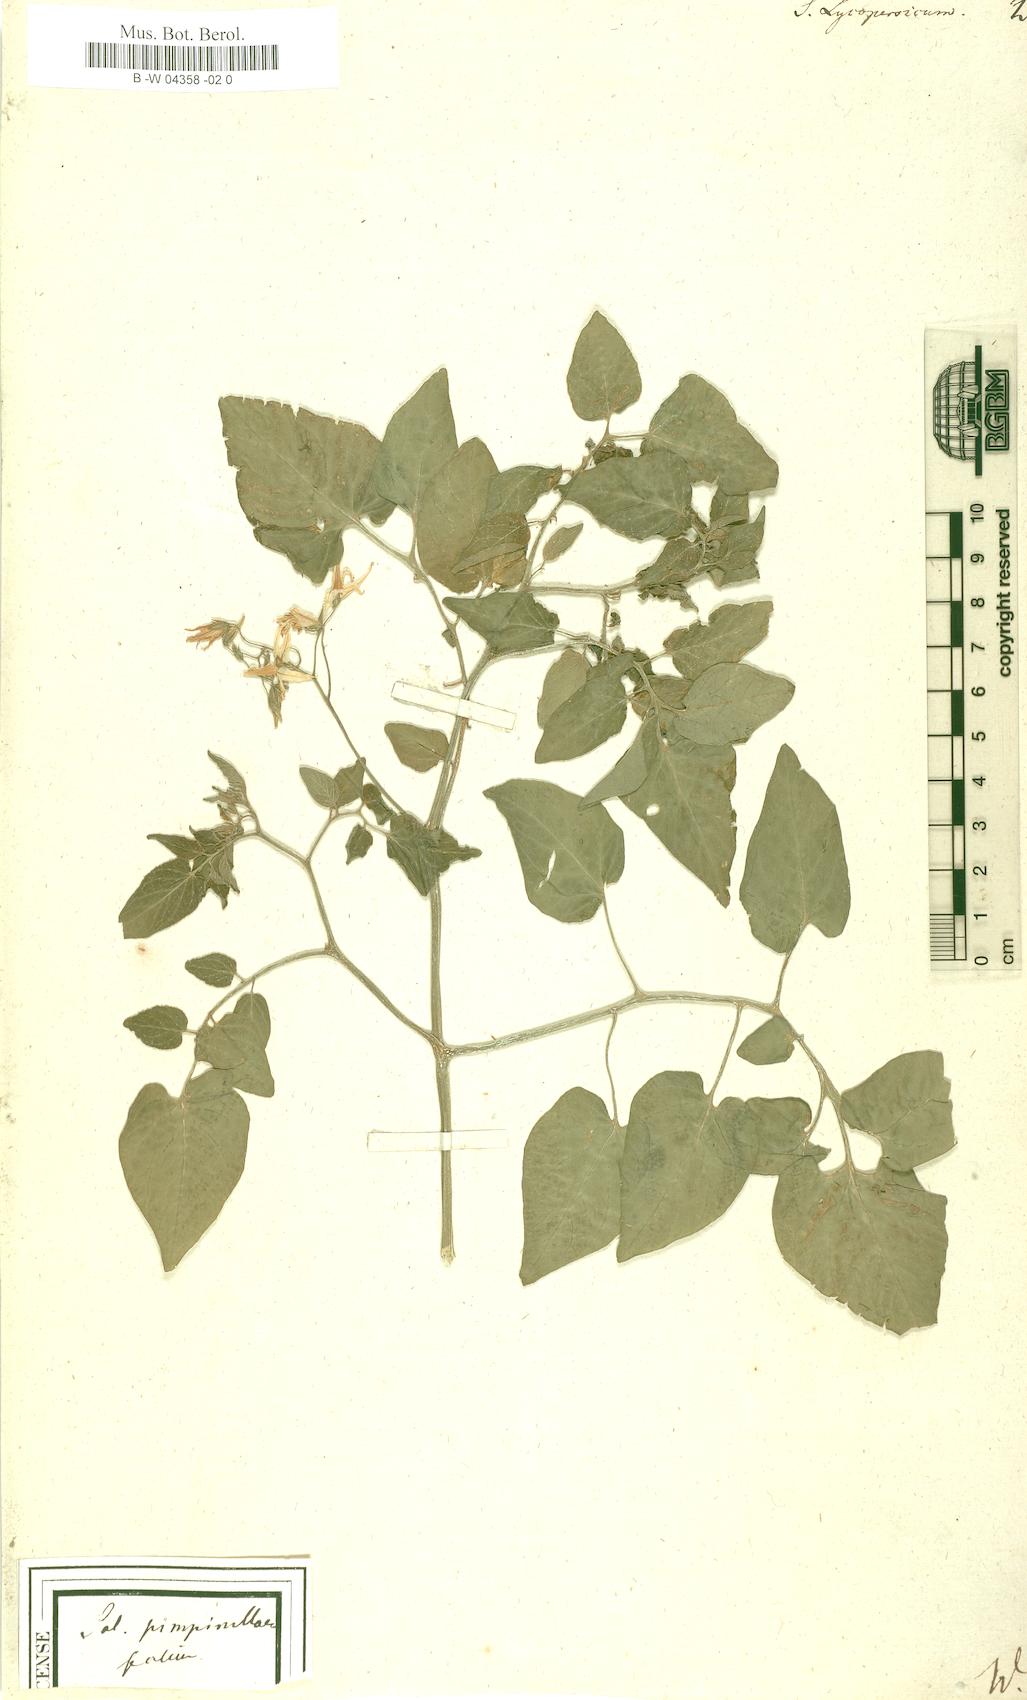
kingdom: Plantae
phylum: Tracheophyta
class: Magnoliopsida
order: Solanales
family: Solanaceae
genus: Solanum
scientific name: Solanum lycopersicum
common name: Garden tomato
